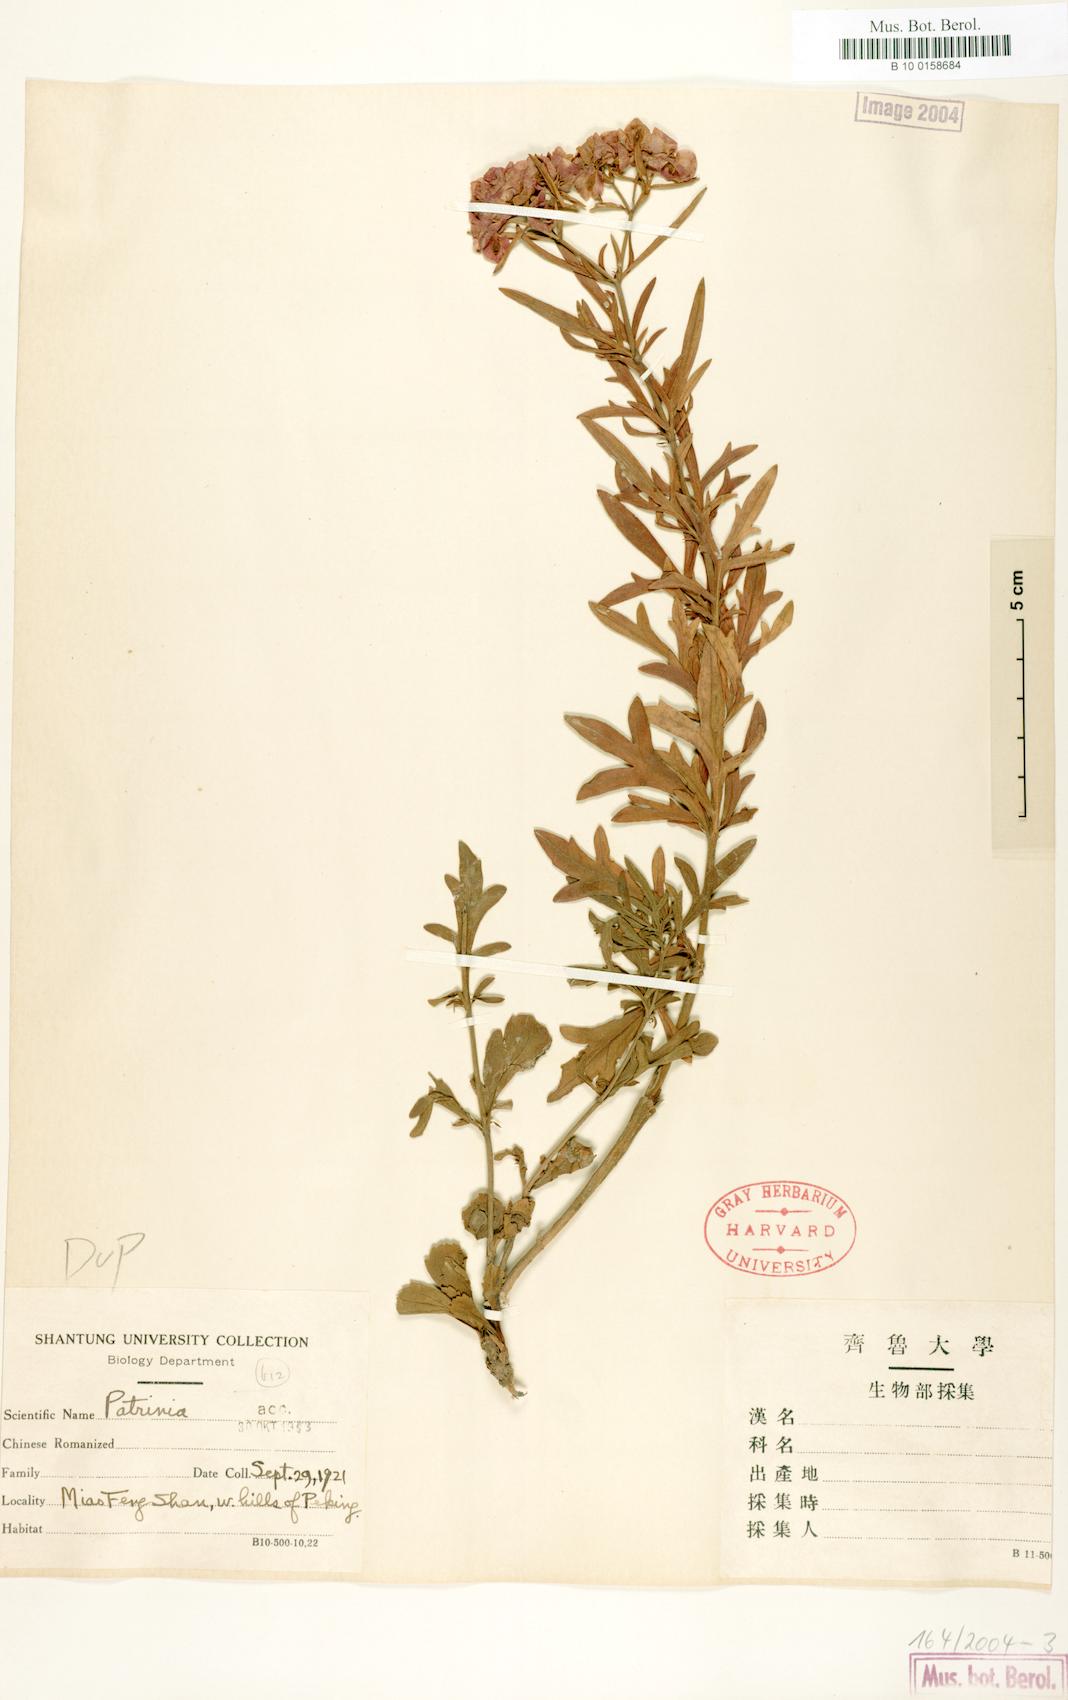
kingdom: Plantae
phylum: Tracheophyta
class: Magnoliopsida
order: Dipsacales
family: Caprifoliaceae
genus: Patrinia
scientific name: Patrinia
